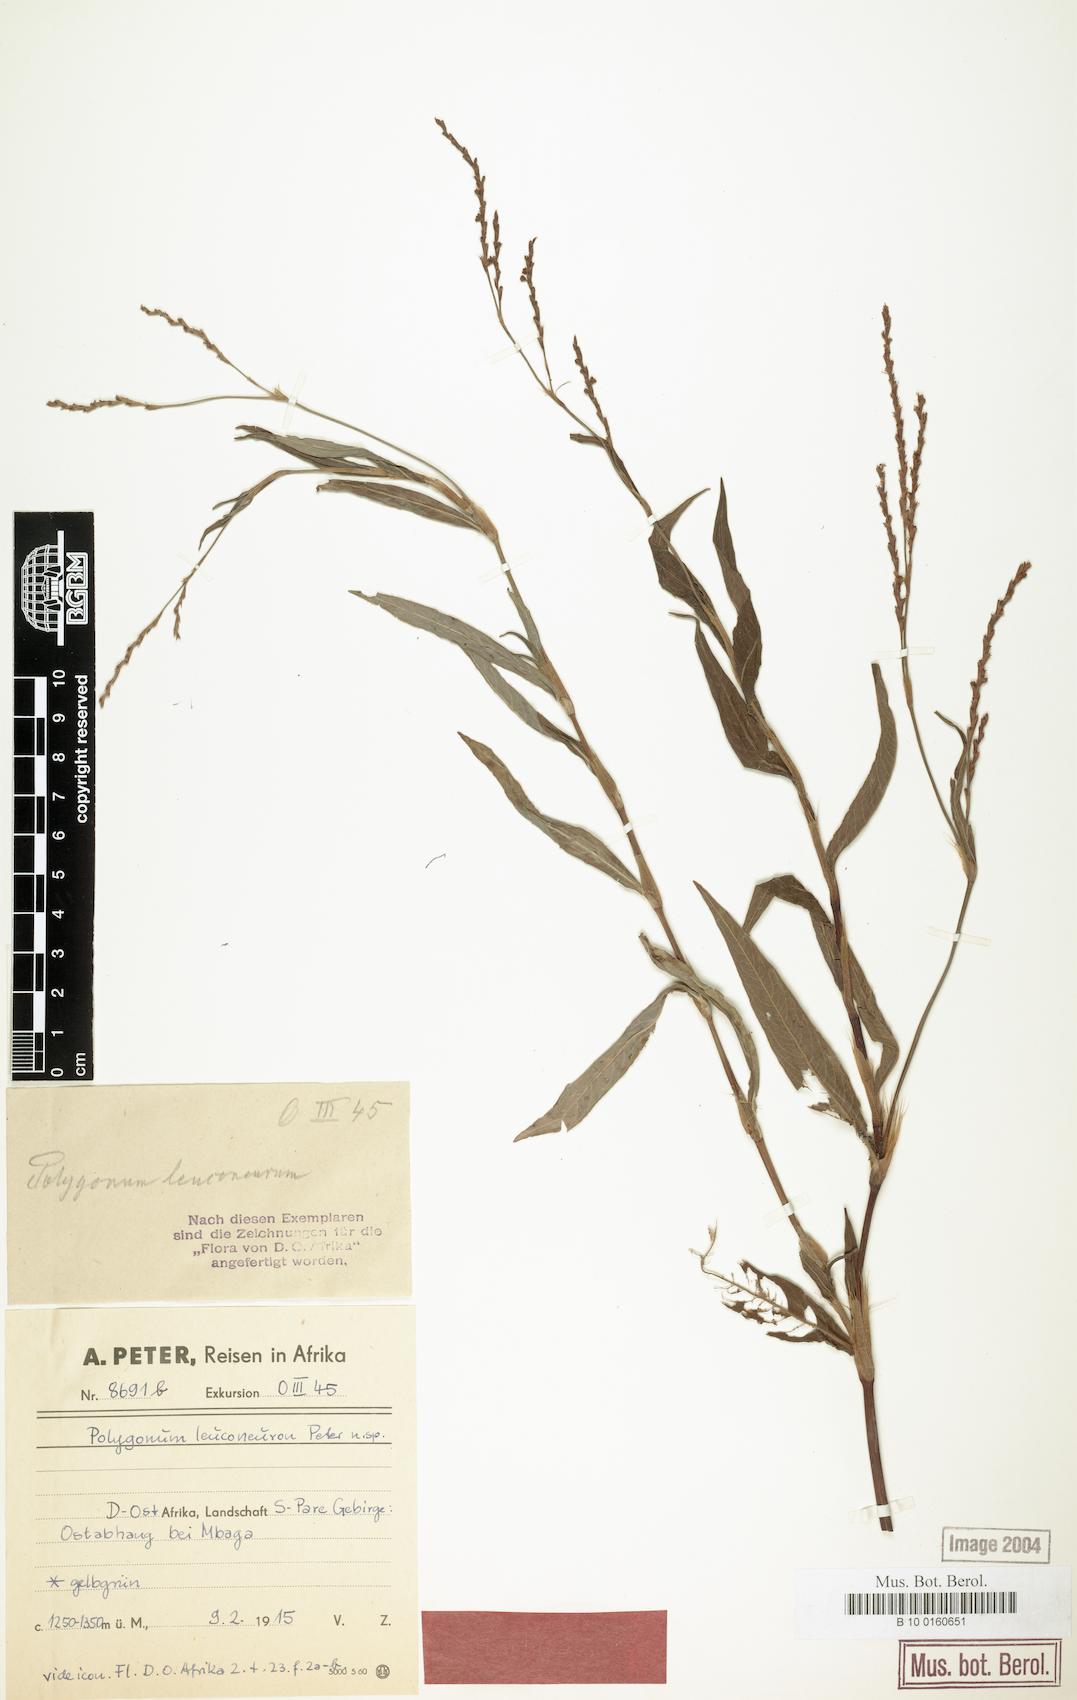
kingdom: Plantae
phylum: Tracheophyta
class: Magnoliopsida
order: Caryophyllales
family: Polygonaceae
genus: Persicaria
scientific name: Persicaria salicifolia
